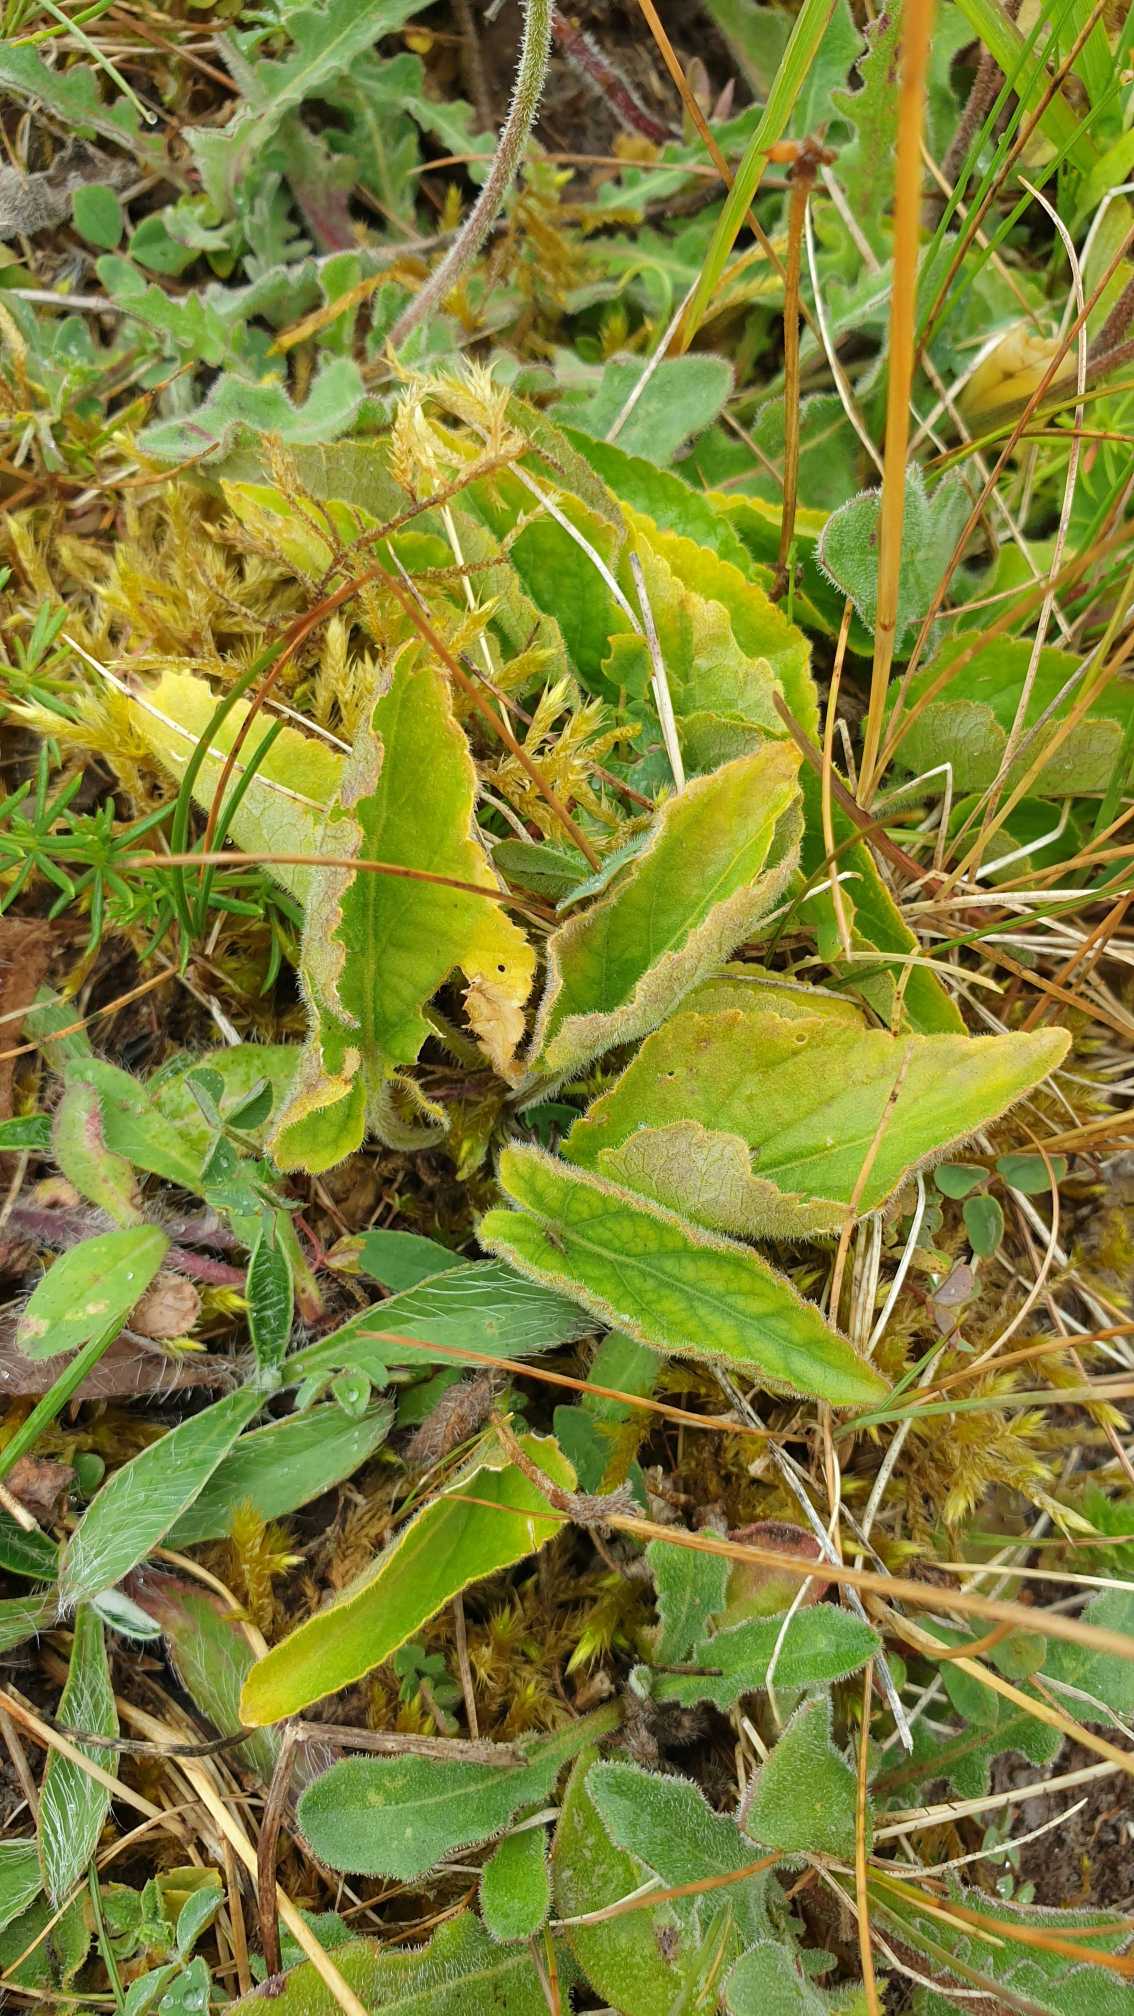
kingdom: Plantae
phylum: Tracheophyta
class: Magnoliopsida
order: Malpighiales
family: Violaceae
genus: Viola
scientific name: Viola hirta
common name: Håret viol
